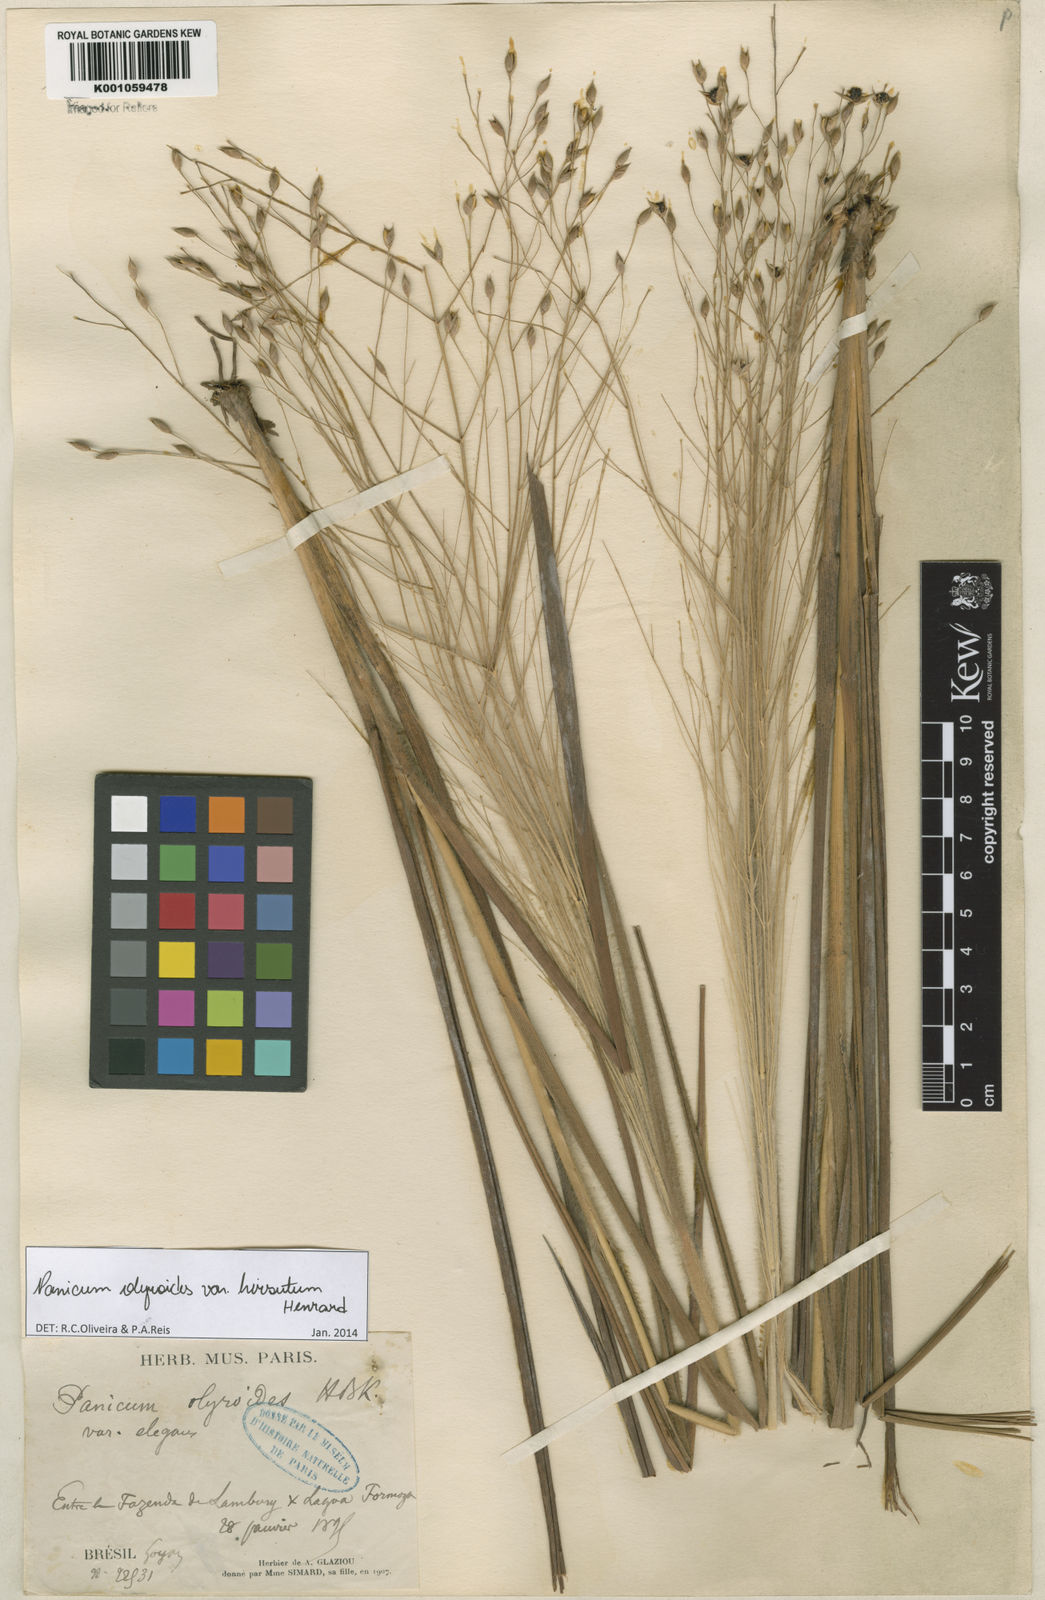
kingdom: Plantae
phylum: Tracheophyta
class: Liliopsida
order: Poales
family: Poaceae
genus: Panicum
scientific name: Panicum olyroides
